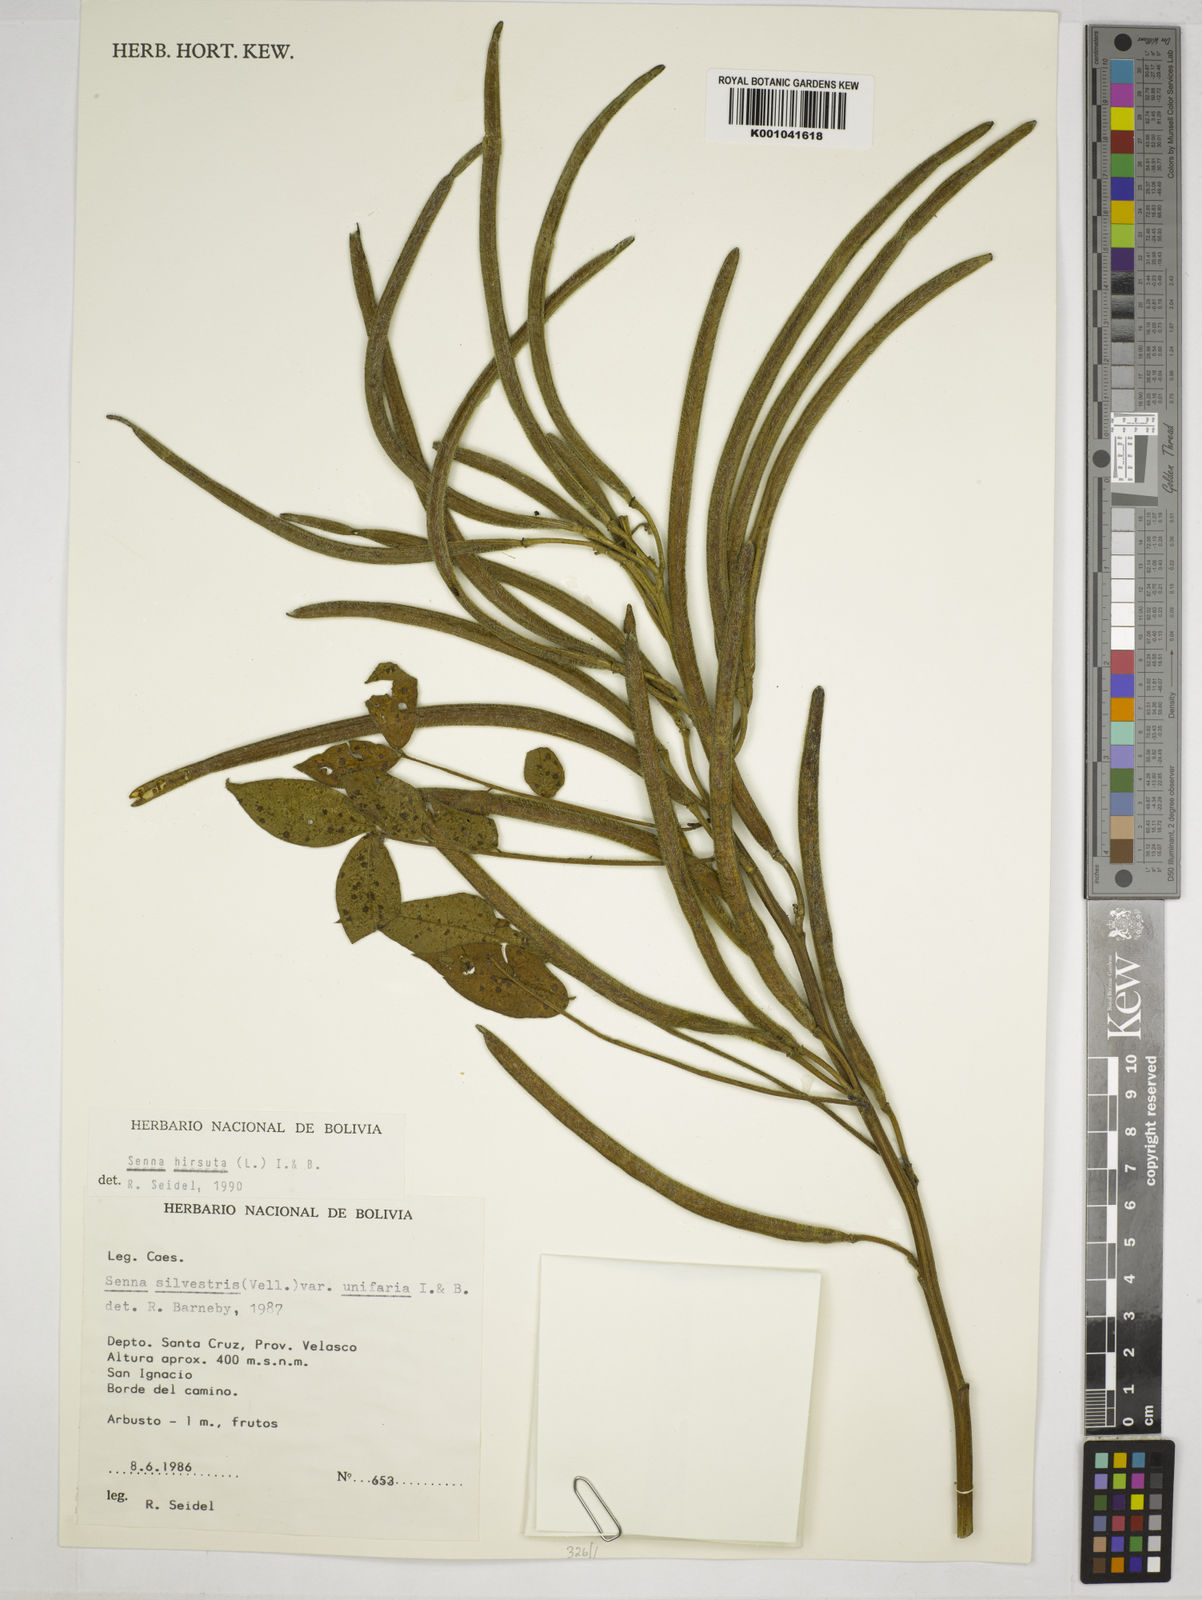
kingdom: Plantae
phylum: Tracheophyta
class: Magnoliopsida
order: Fabales
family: Fabaceae
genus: Senna
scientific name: Senna hirsuta
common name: Woolly senna
